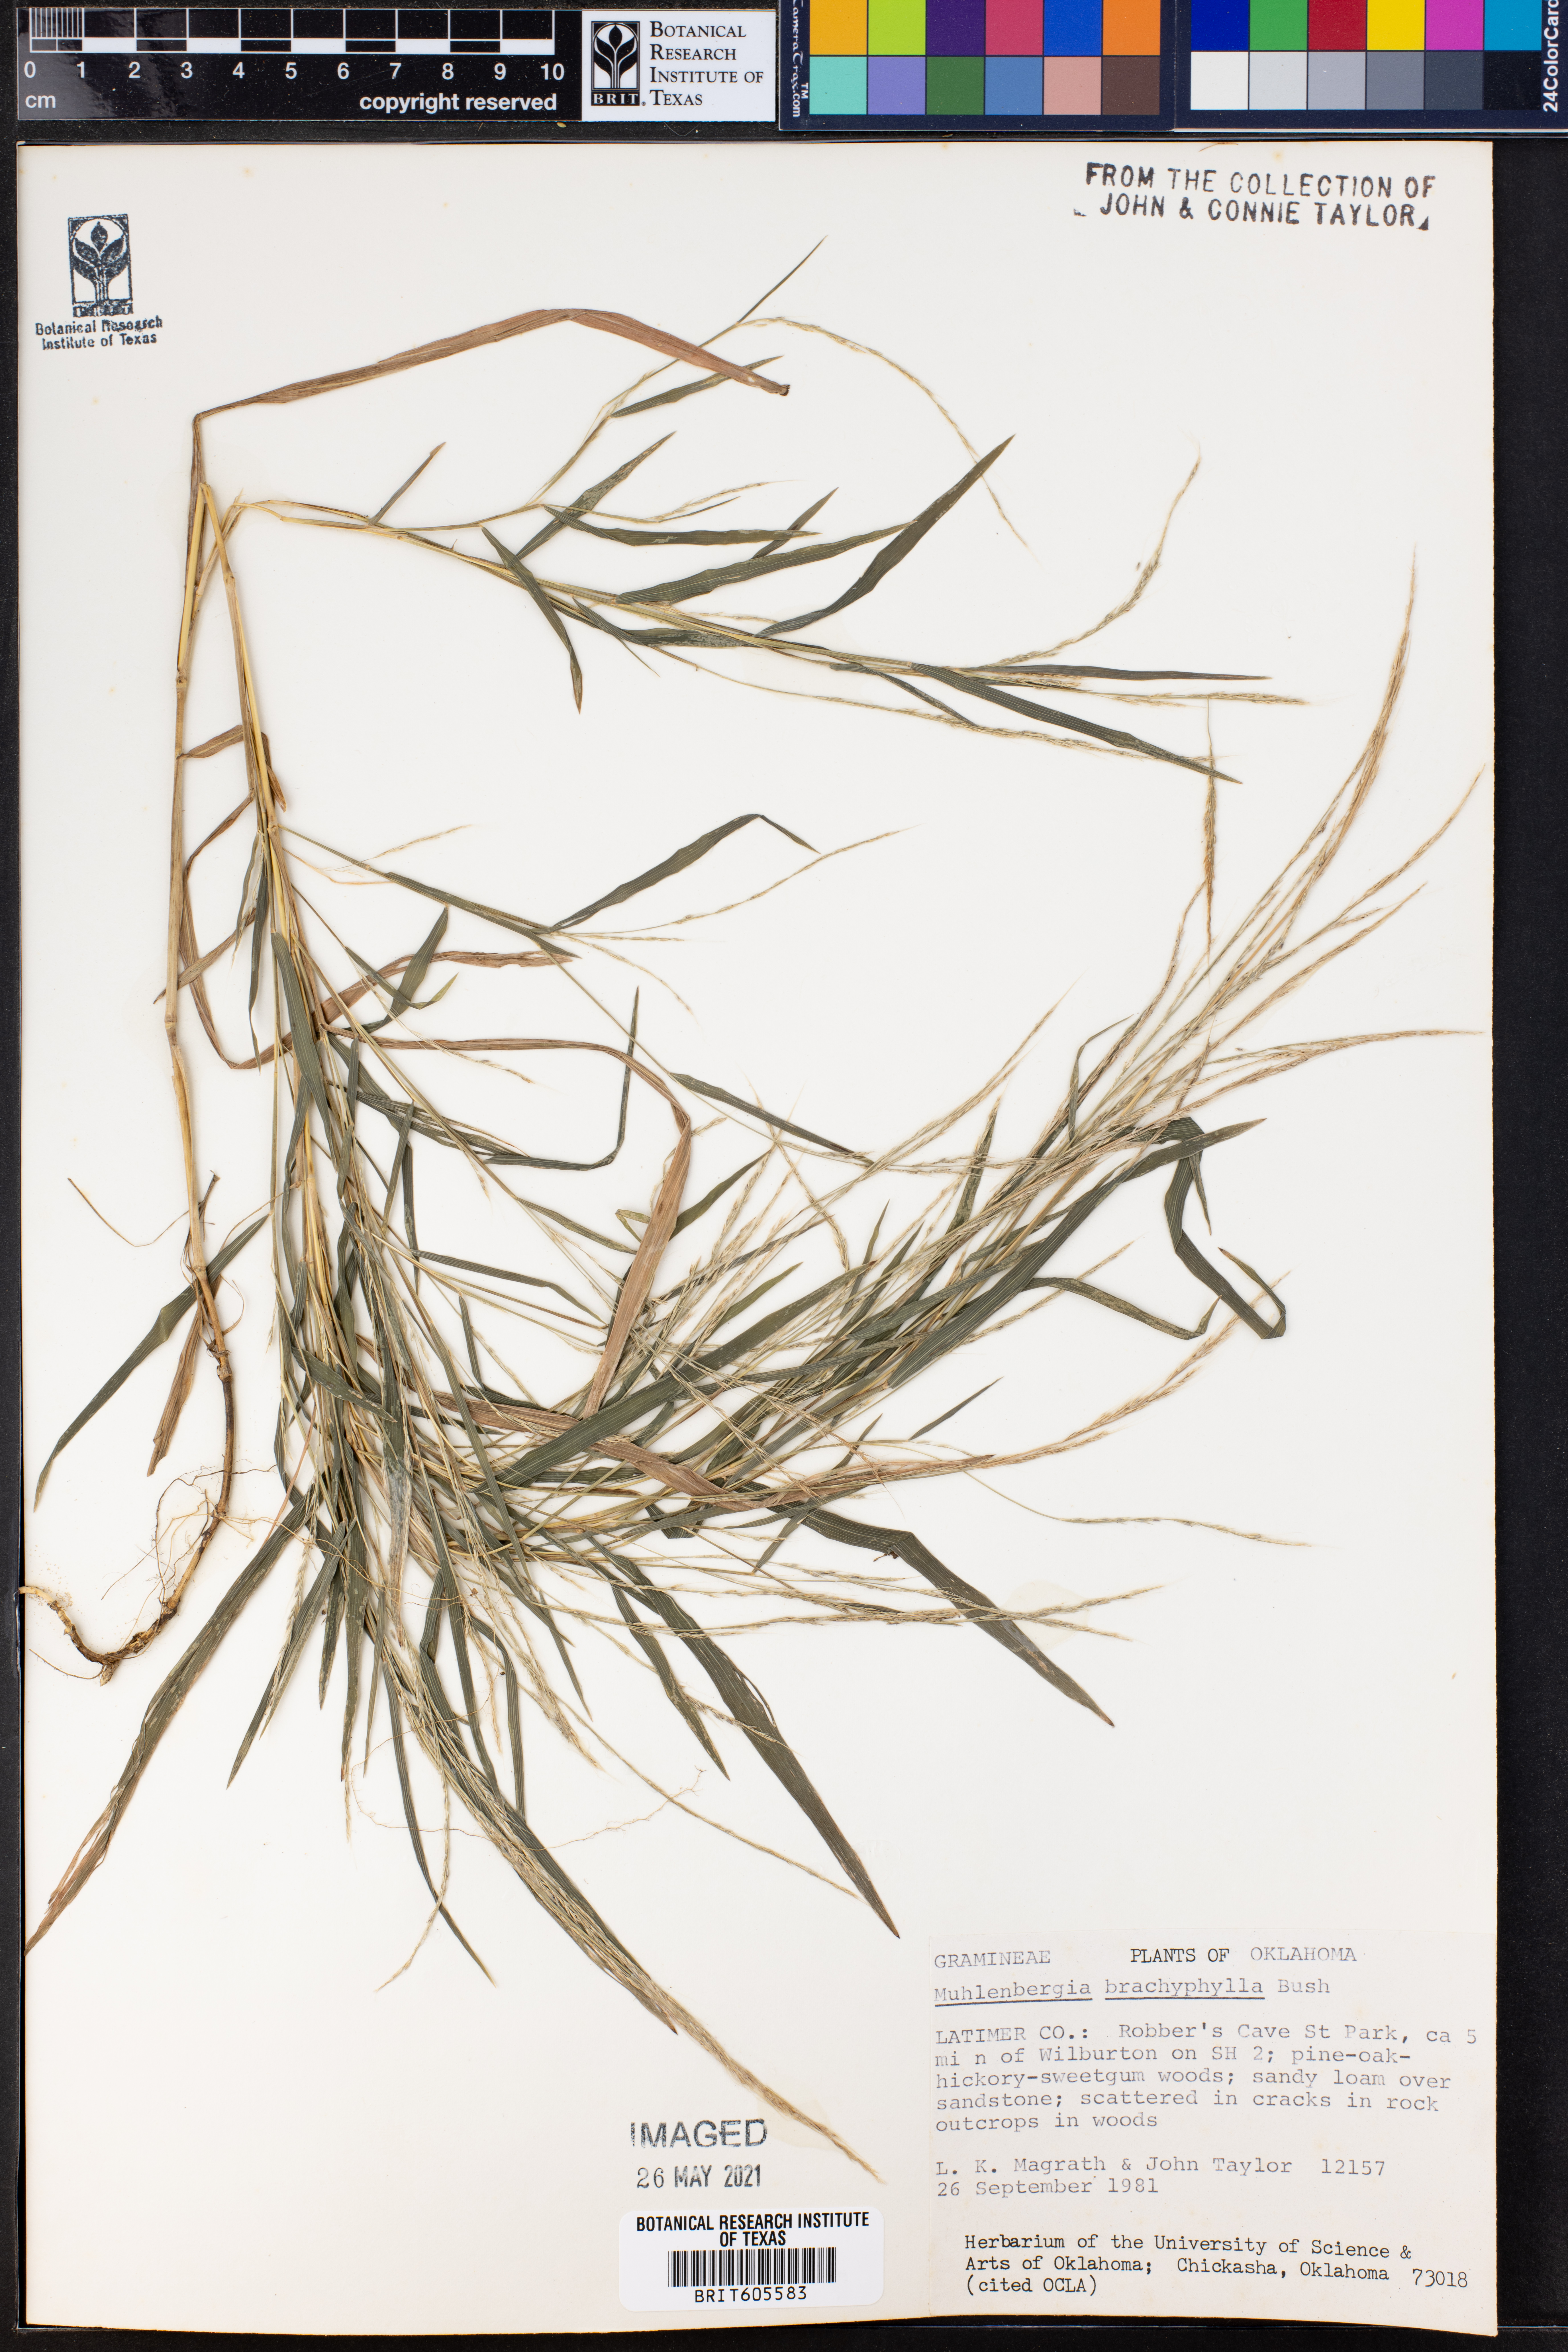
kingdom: Plantae
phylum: Tracheophyta
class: Liliopsida
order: Poales
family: Poaceae
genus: Muhlenbergia
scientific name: Muhlenbergia bushii
